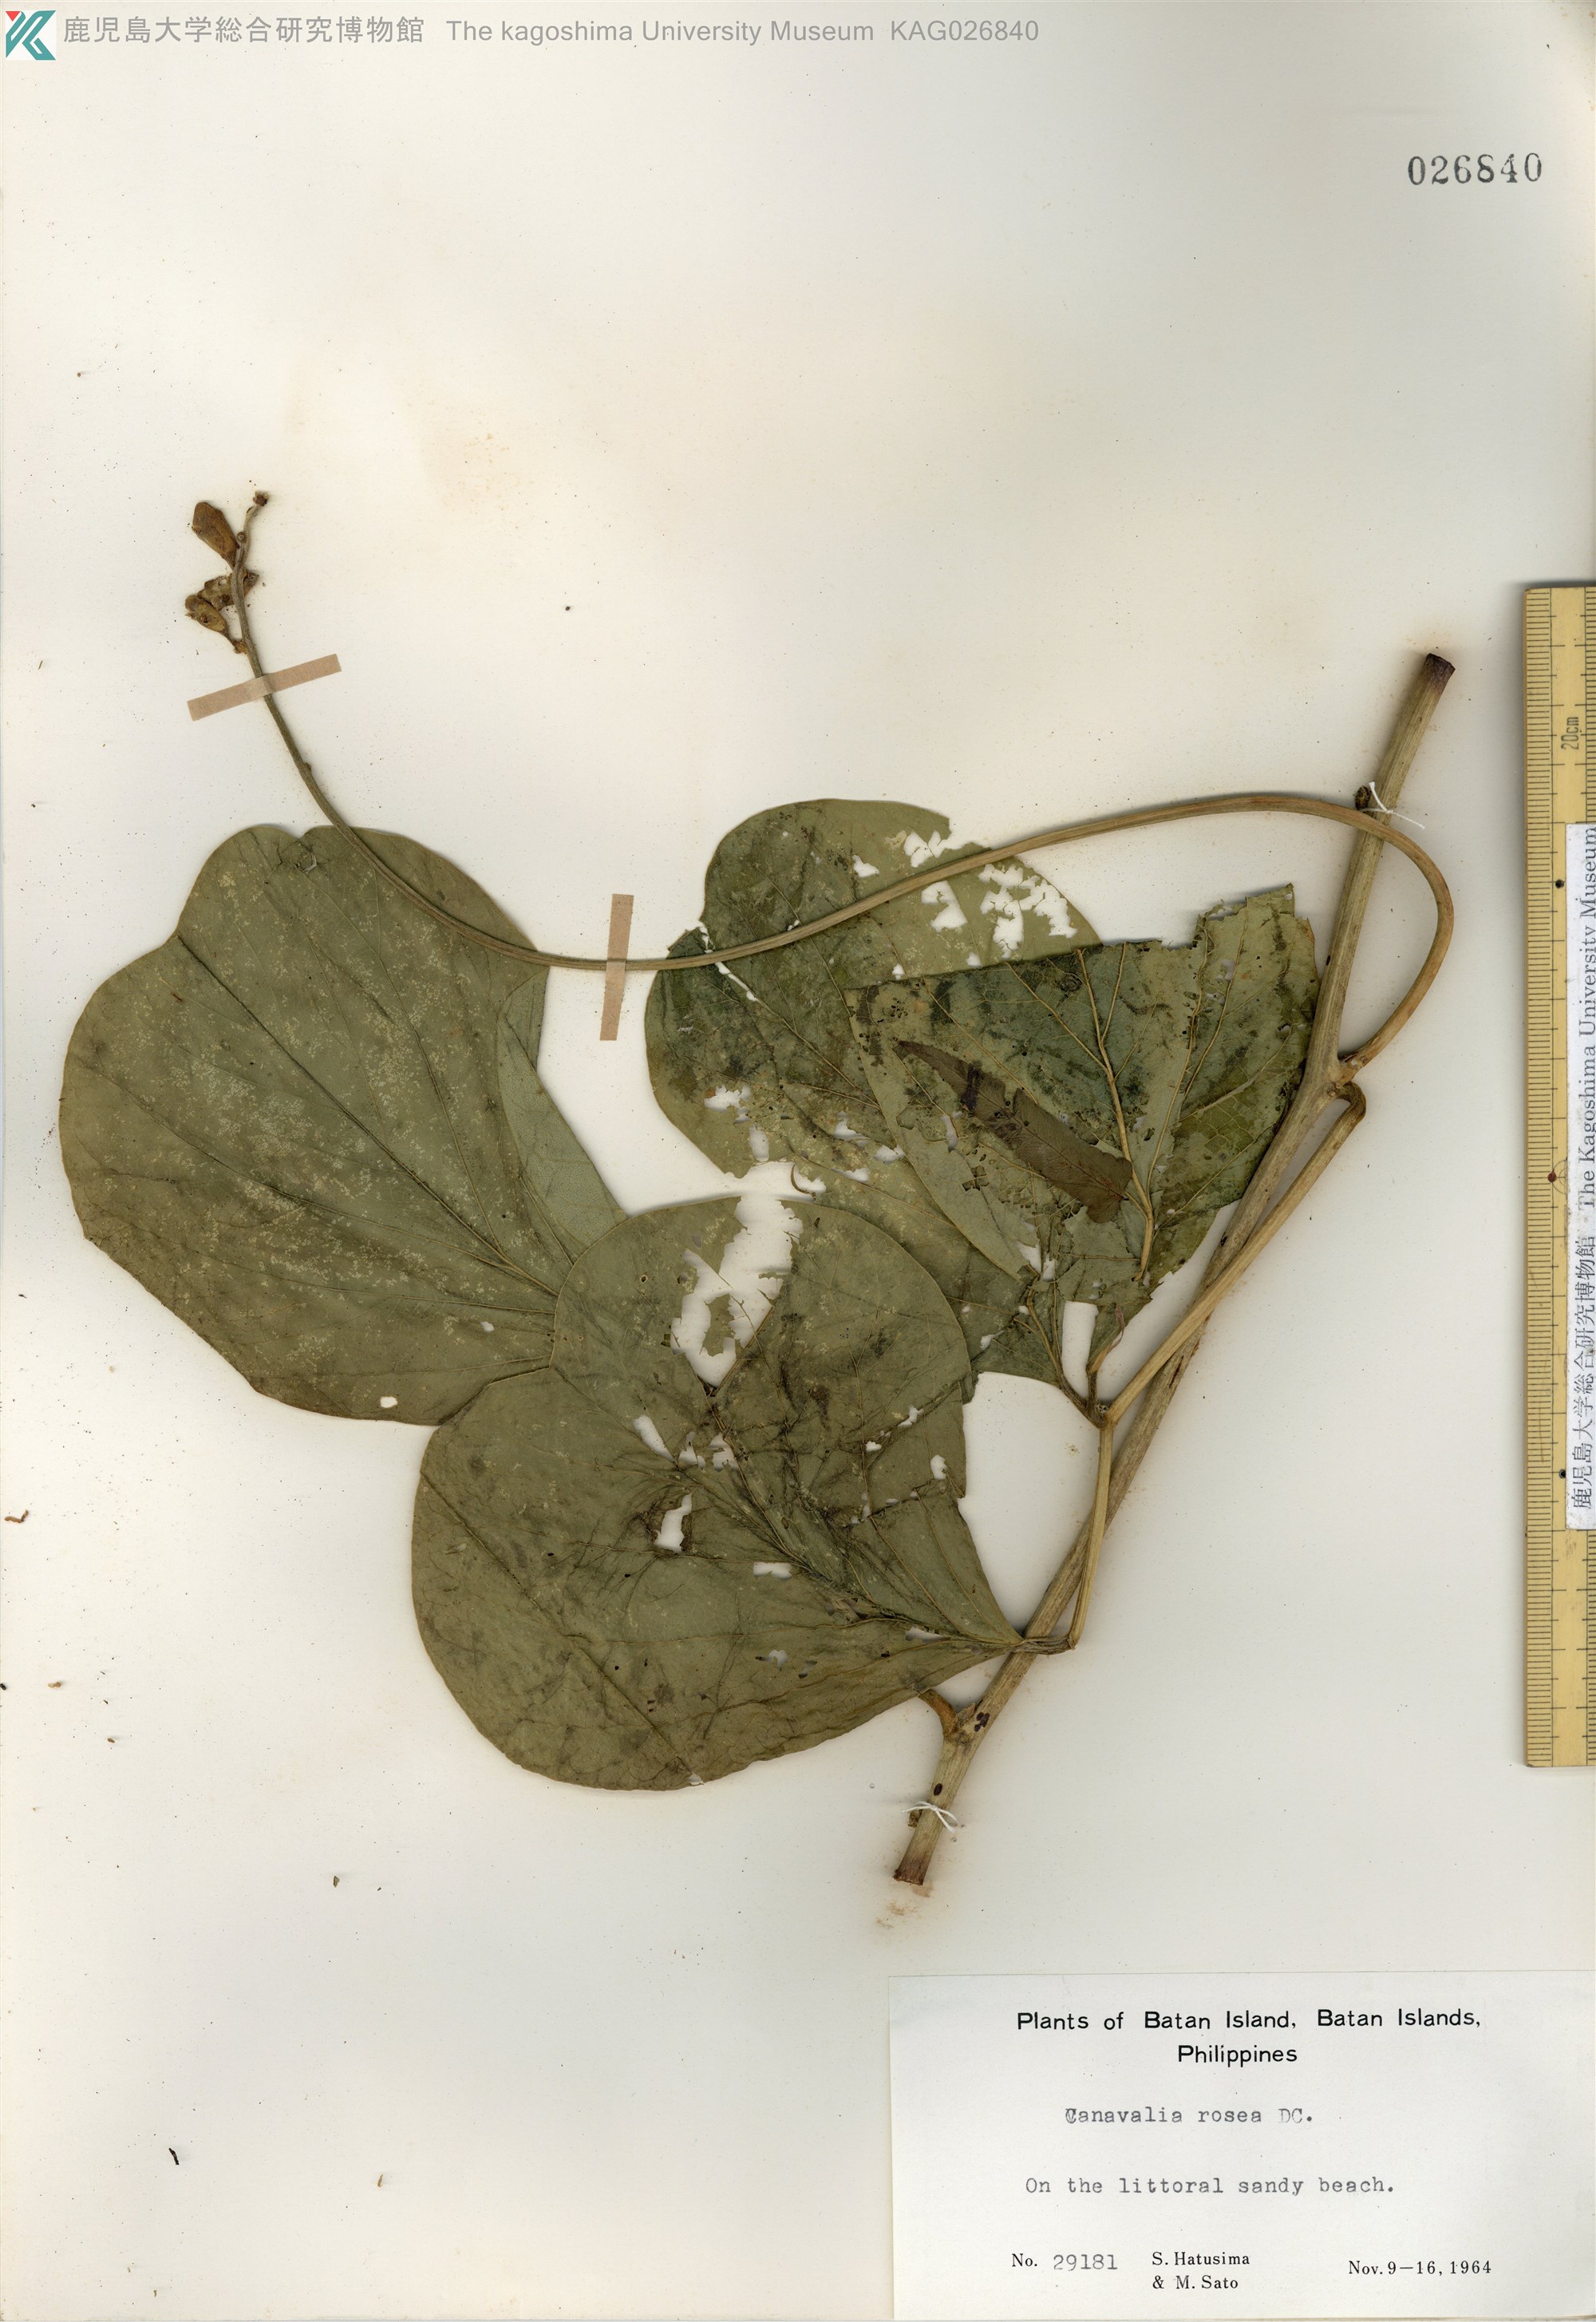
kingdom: Plantae
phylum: Tracheophyta
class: Magnoliopsida
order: Fabales
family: Fabaceae
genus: Canavalia
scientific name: Canavalia rosea
